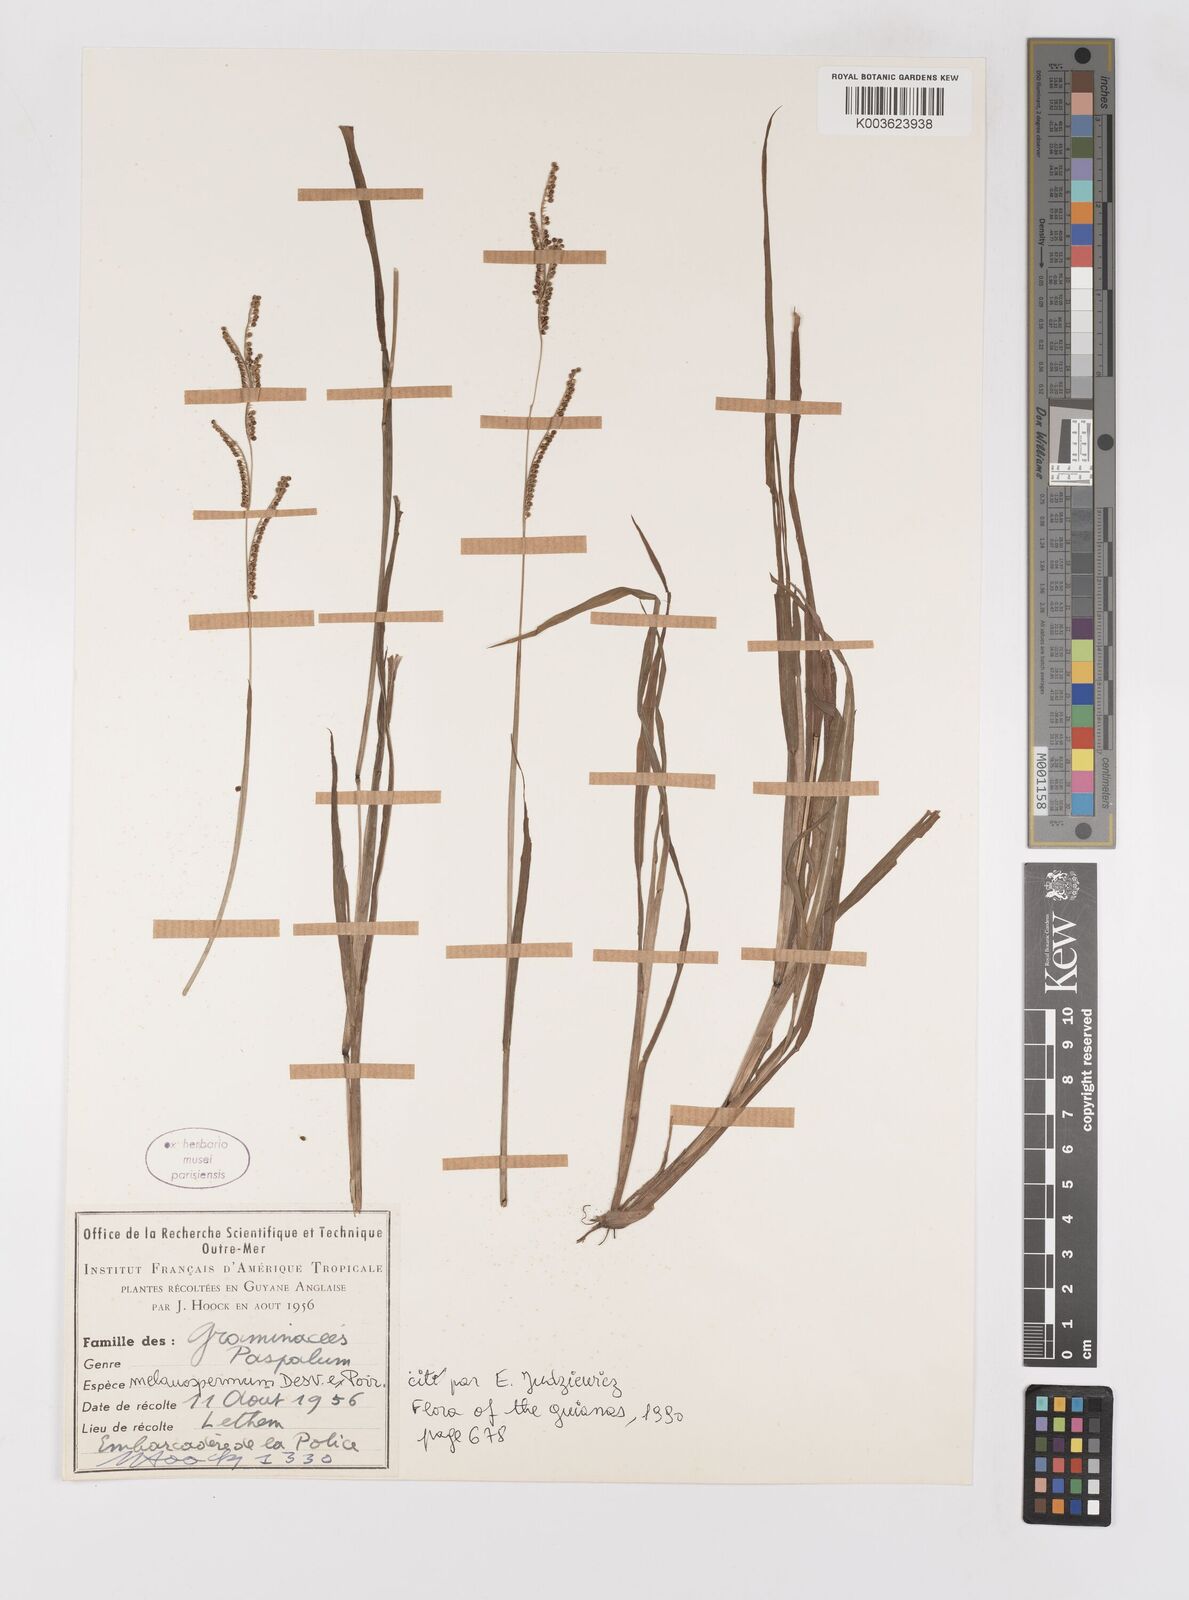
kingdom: Plantae
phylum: Tracheophyta
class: Liliopsida
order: Poales
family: Poaceae
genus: Paspalum
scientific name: Paspalum melanospermum
